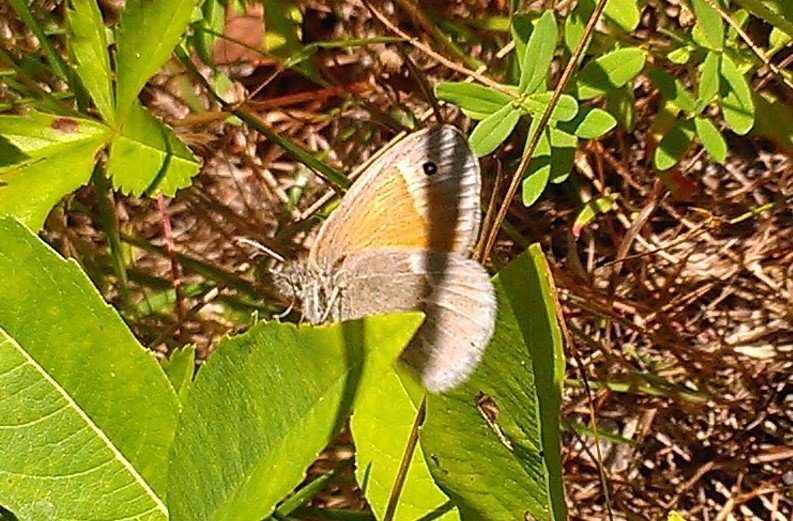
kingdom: Animalia
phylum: Arthropoda
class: Insecta
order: Lepidoptera
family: Nymphalidae
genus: Coenonympha
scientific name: Coenonympha tullia
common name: Large Heath
